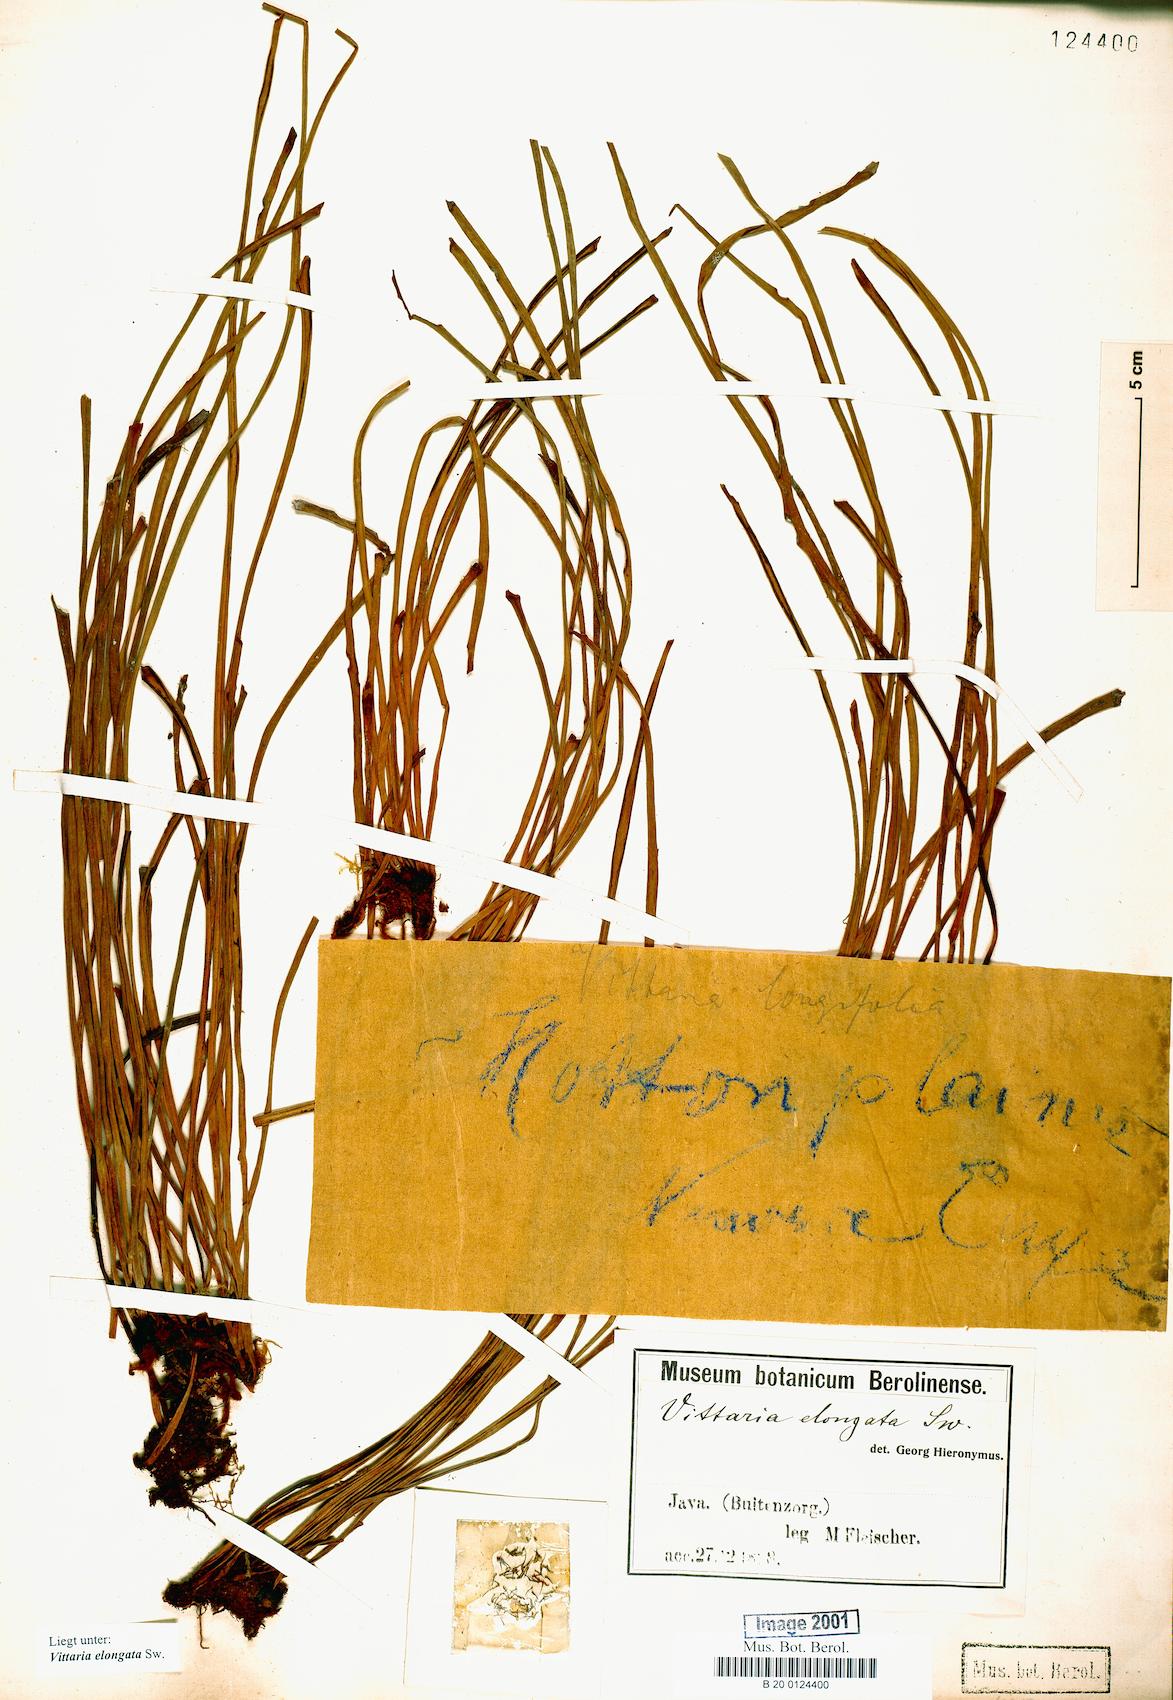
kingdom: Plantae
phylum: Tracheophyta
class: Polypodiopsida
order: Polypodiales
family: Pteridaceae
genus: Haplopteris
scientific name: Haplopteris elongata
